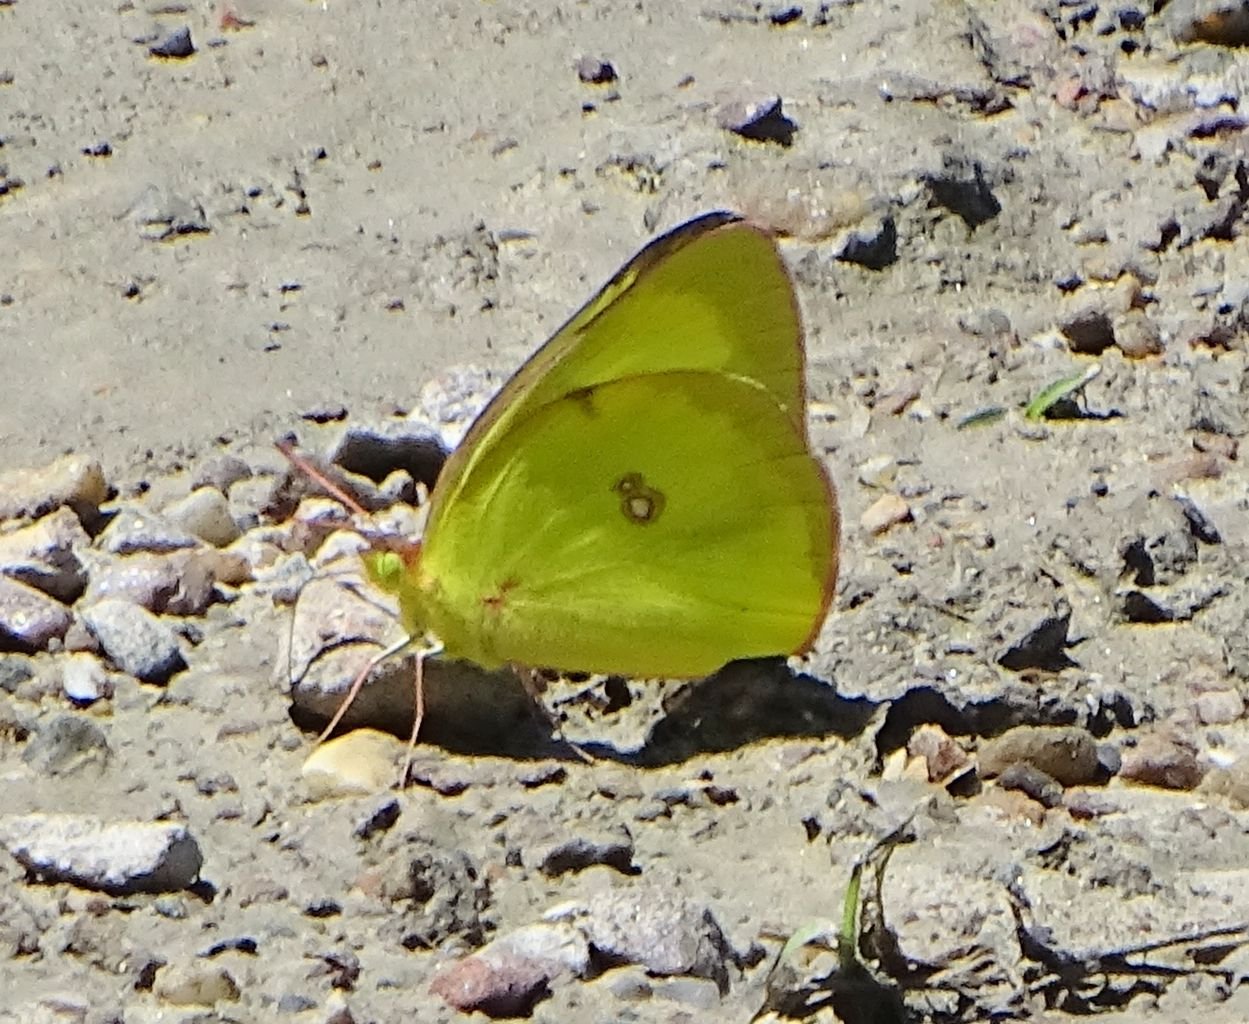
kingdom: Animalia
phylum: Arthropoda
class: Insecta
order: Lepidoptera
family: Pieridae
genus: Colias
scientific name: Colias philodice
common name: Clouded Sulphur
